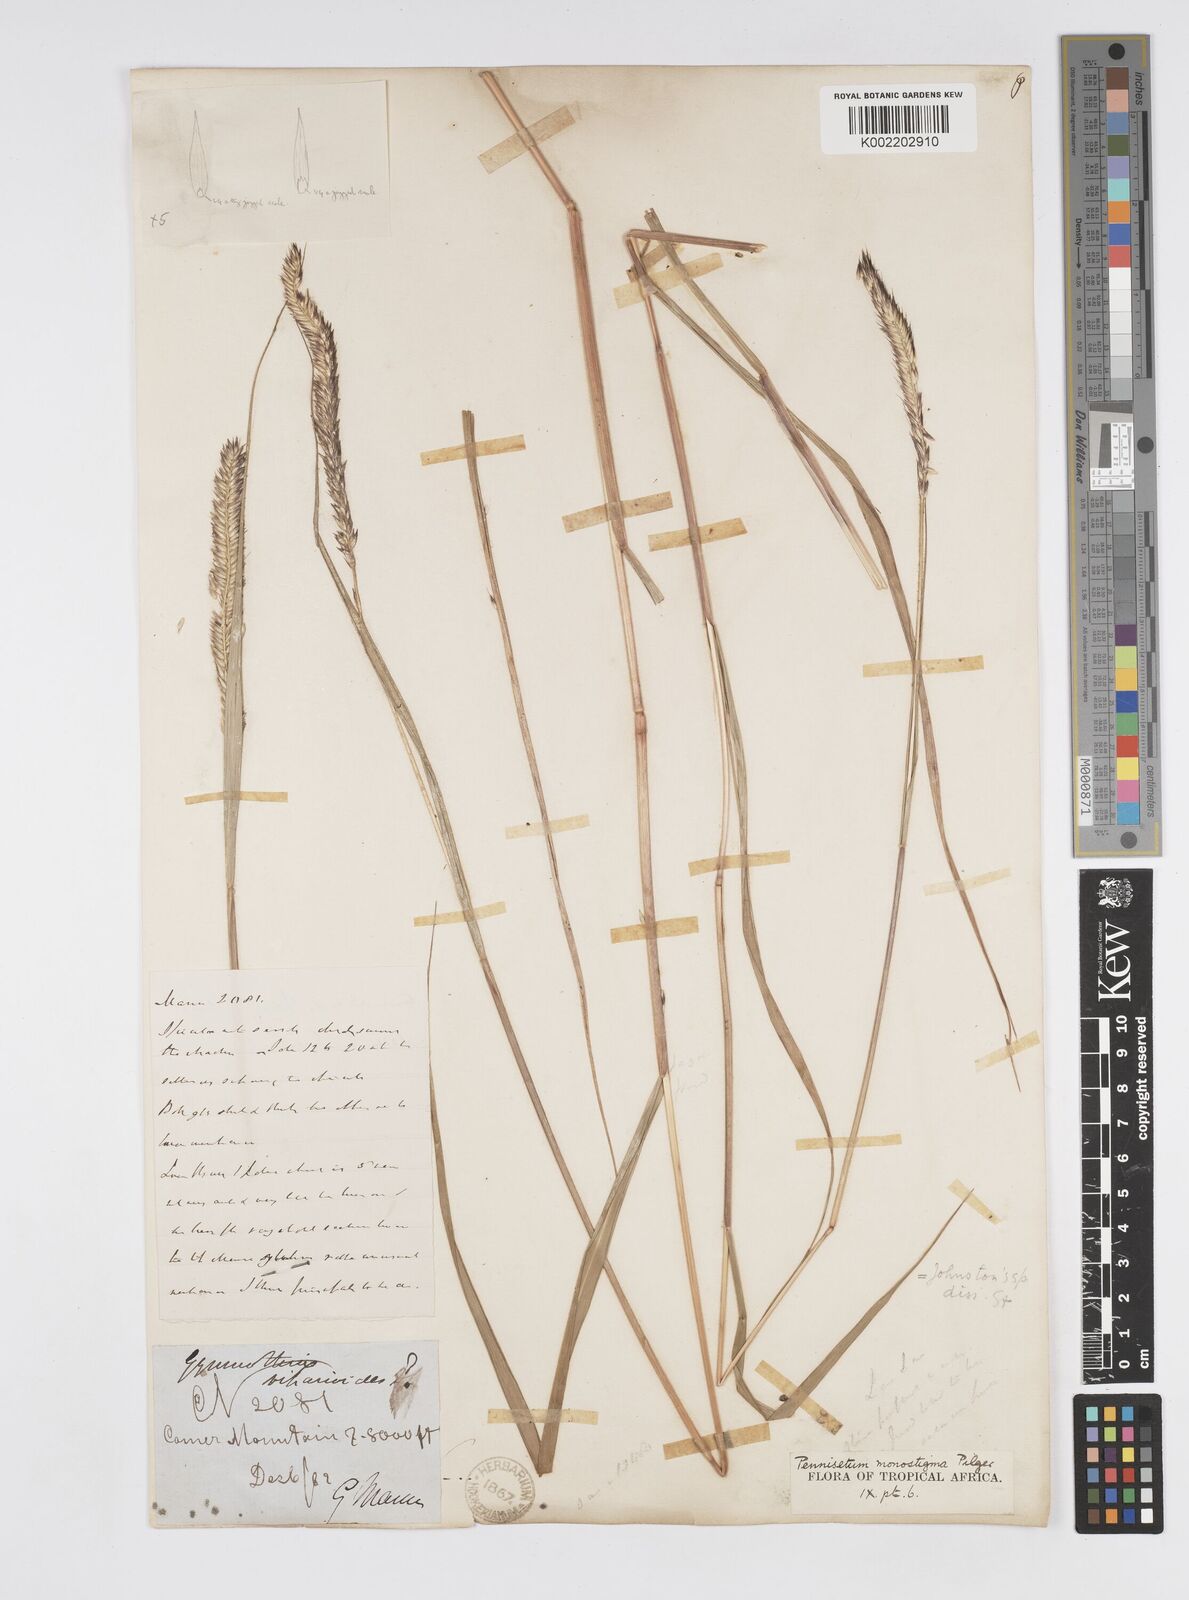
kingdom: Plantae
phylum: Tracheophyta
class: Liliopsida
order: Poales
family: Poaceae
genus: Cenchrus
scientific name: Cenchrus monostigma
